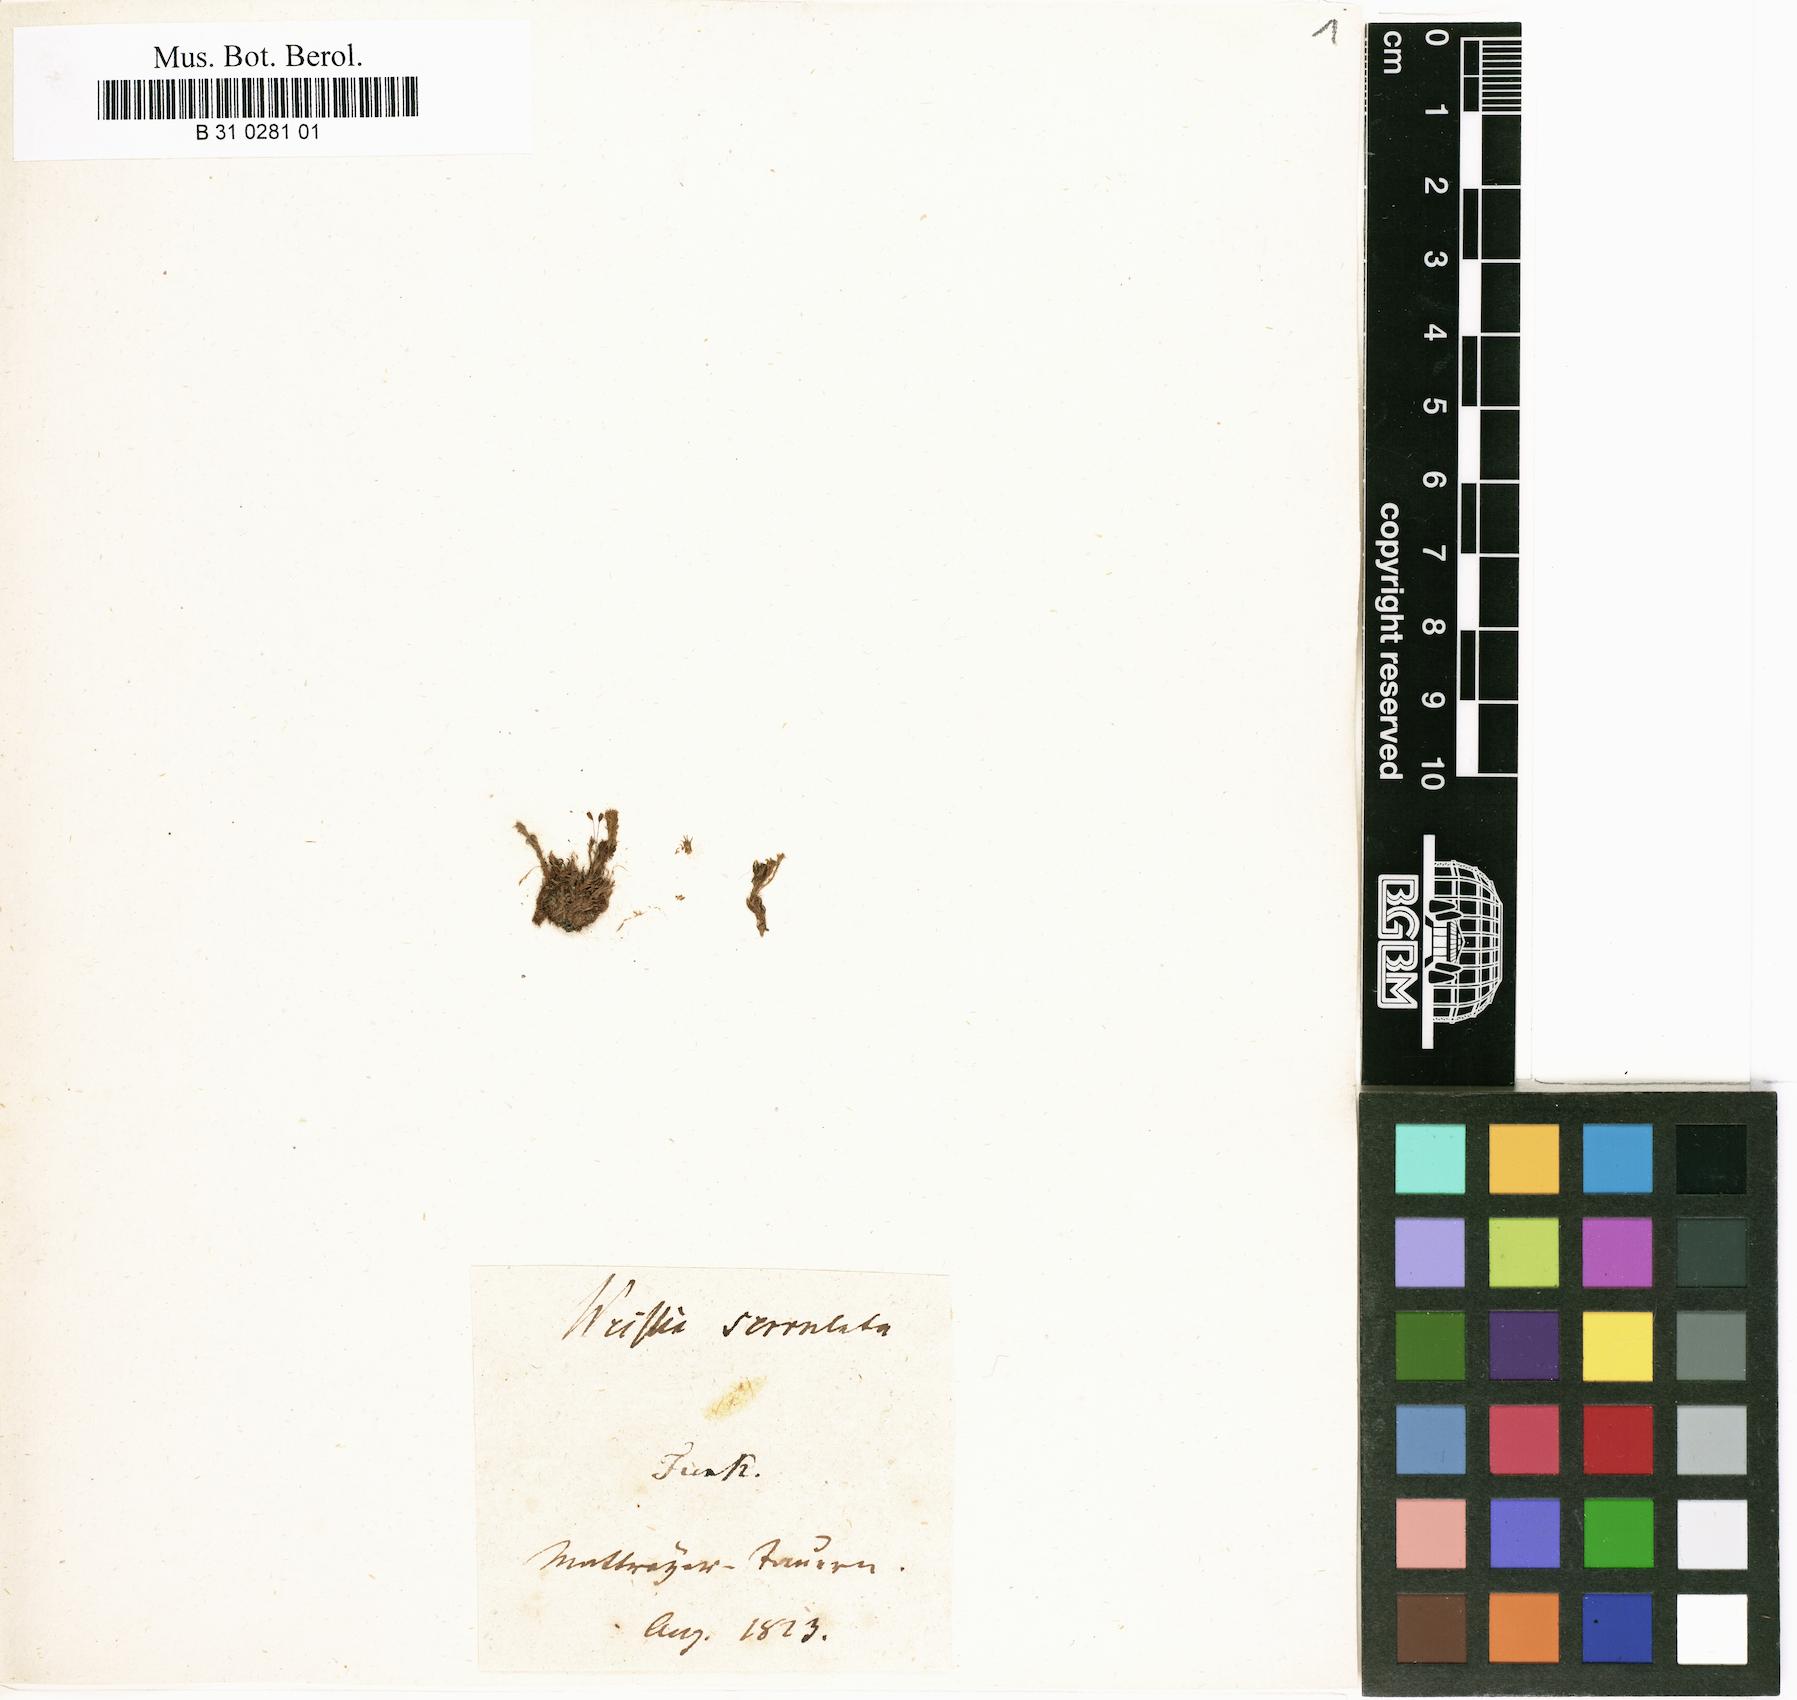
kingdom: Plantae
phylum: Bryophyta
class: Bryopsida
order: Dicranales
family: Rhabdoweisiaceae
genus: Cynodontium
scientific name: Cynodontium serrulatum
